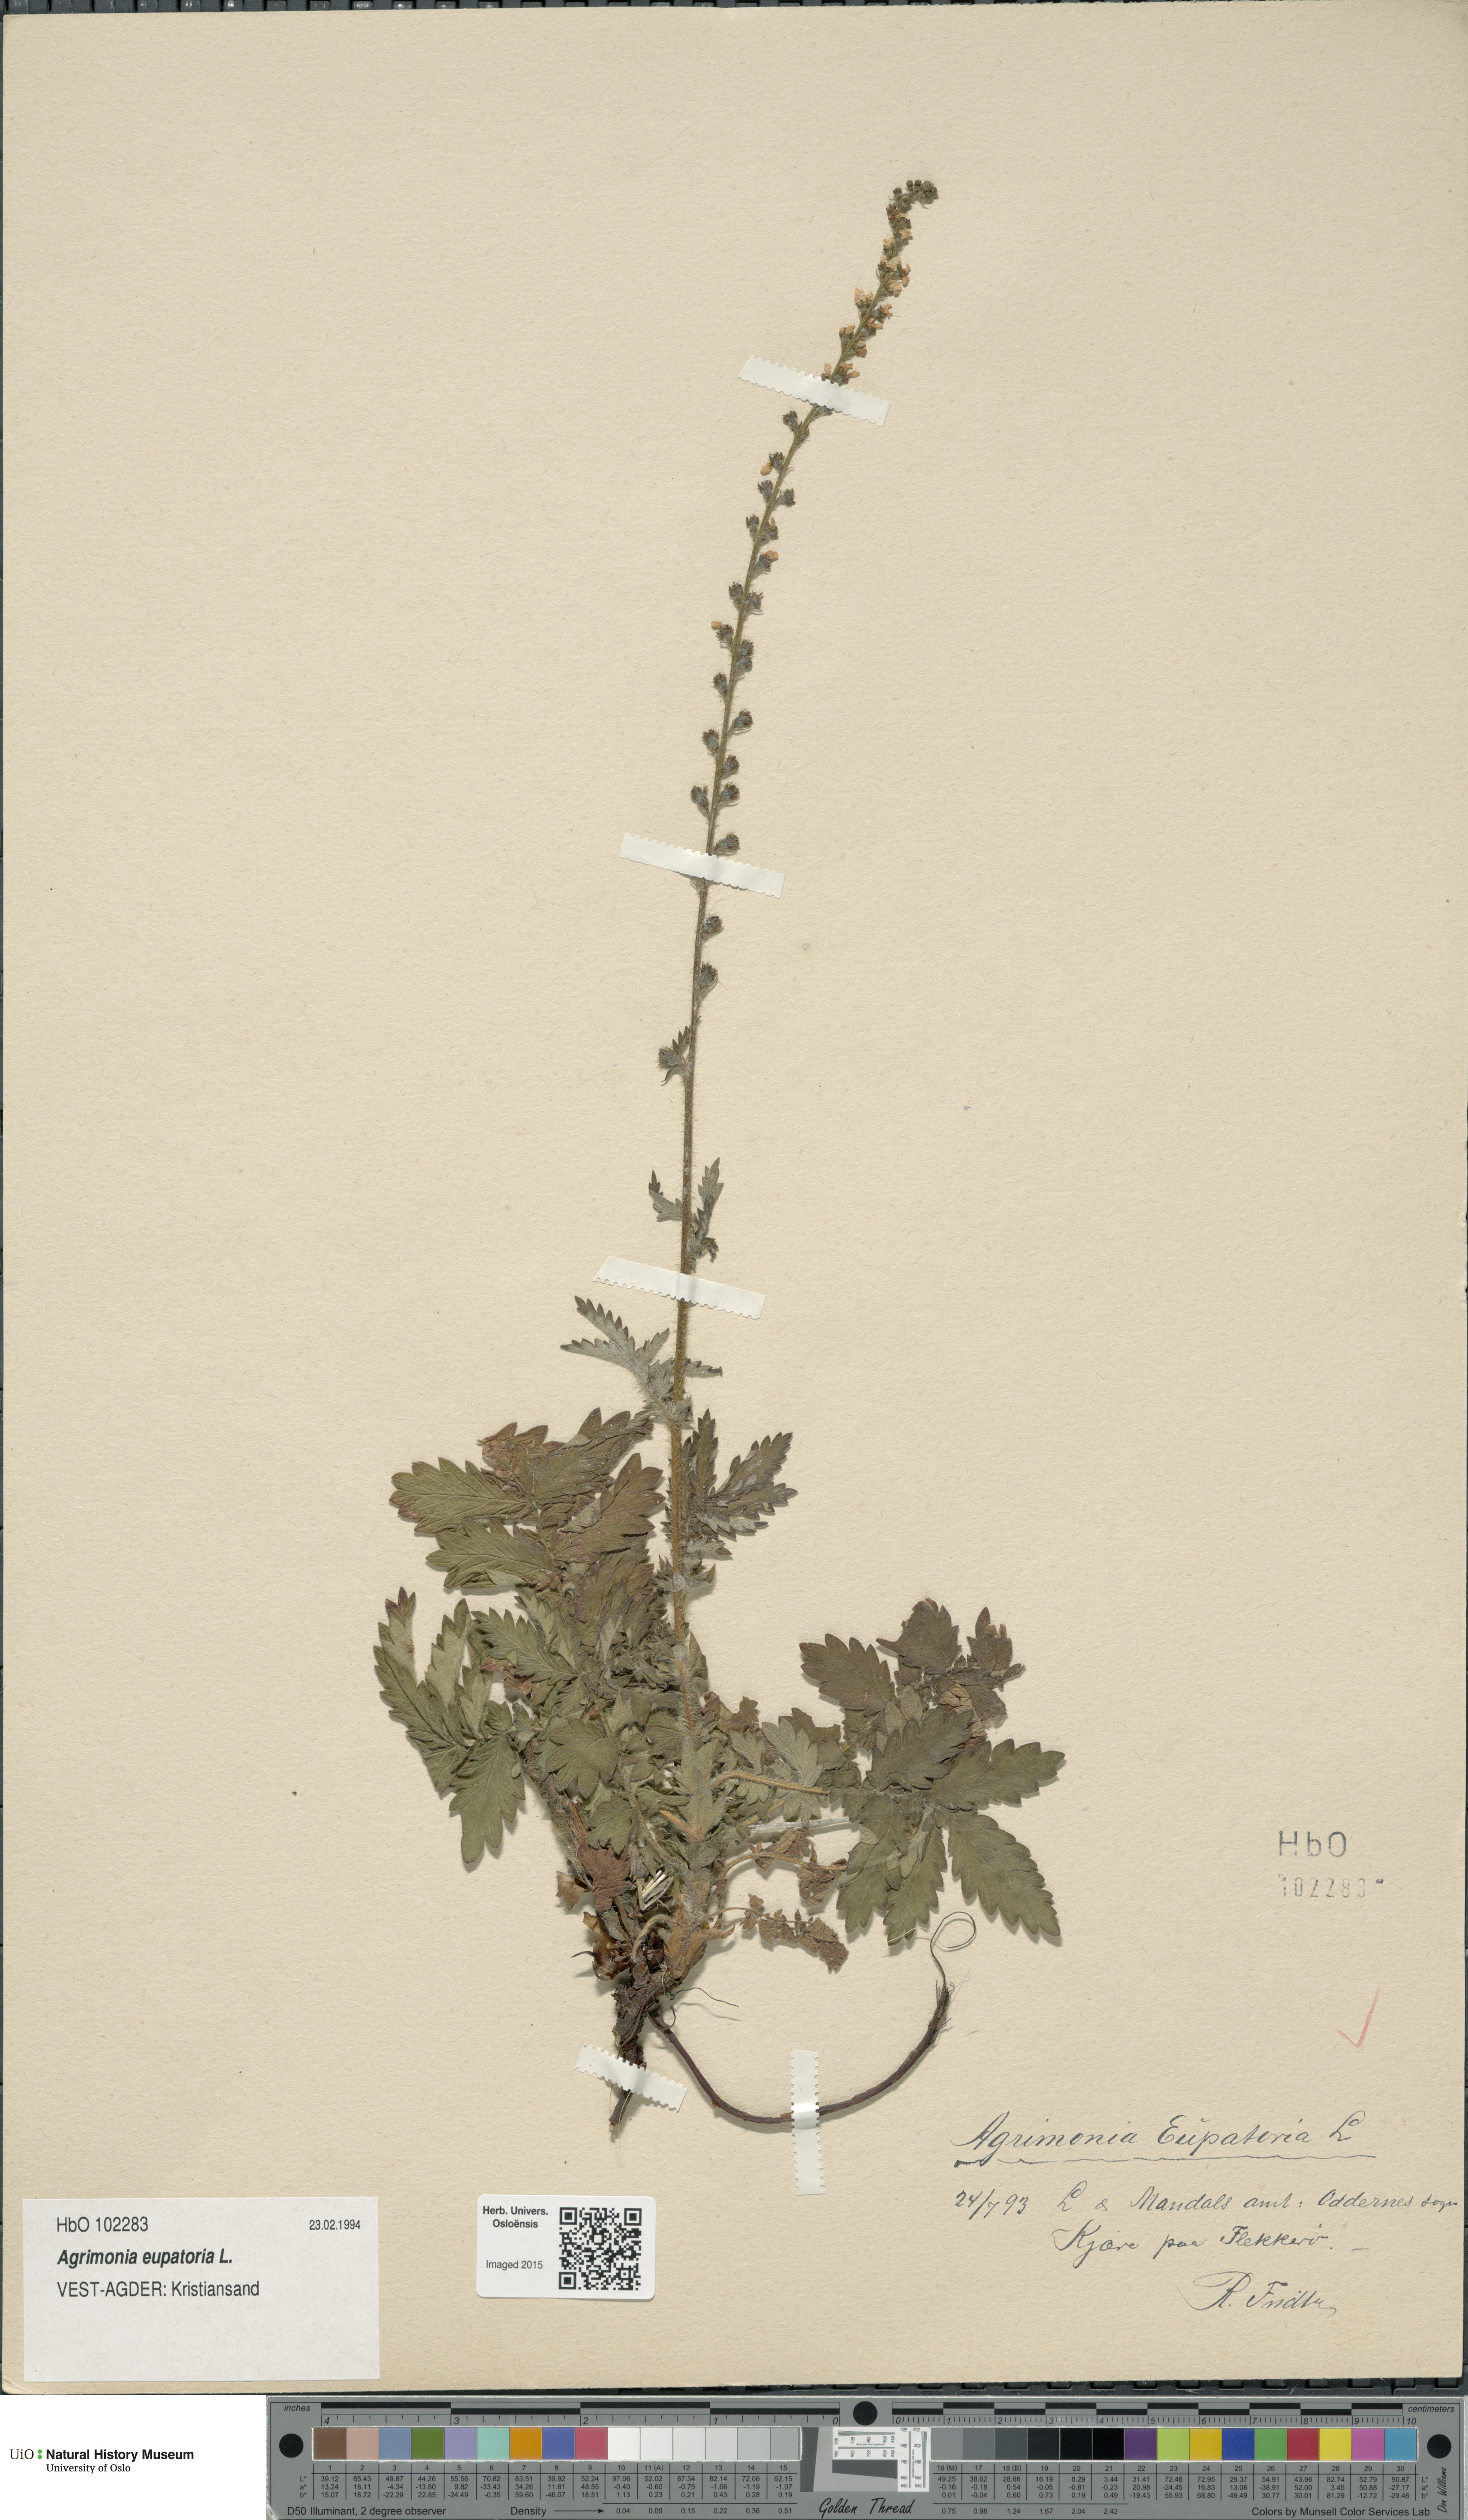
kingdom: Plantae
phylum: Tracheophyta
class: Magnoliopsida
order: Rosales
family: Rosaceae
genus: Agrimonia
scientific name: Agrimonia eupatoria
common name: Agrimony
